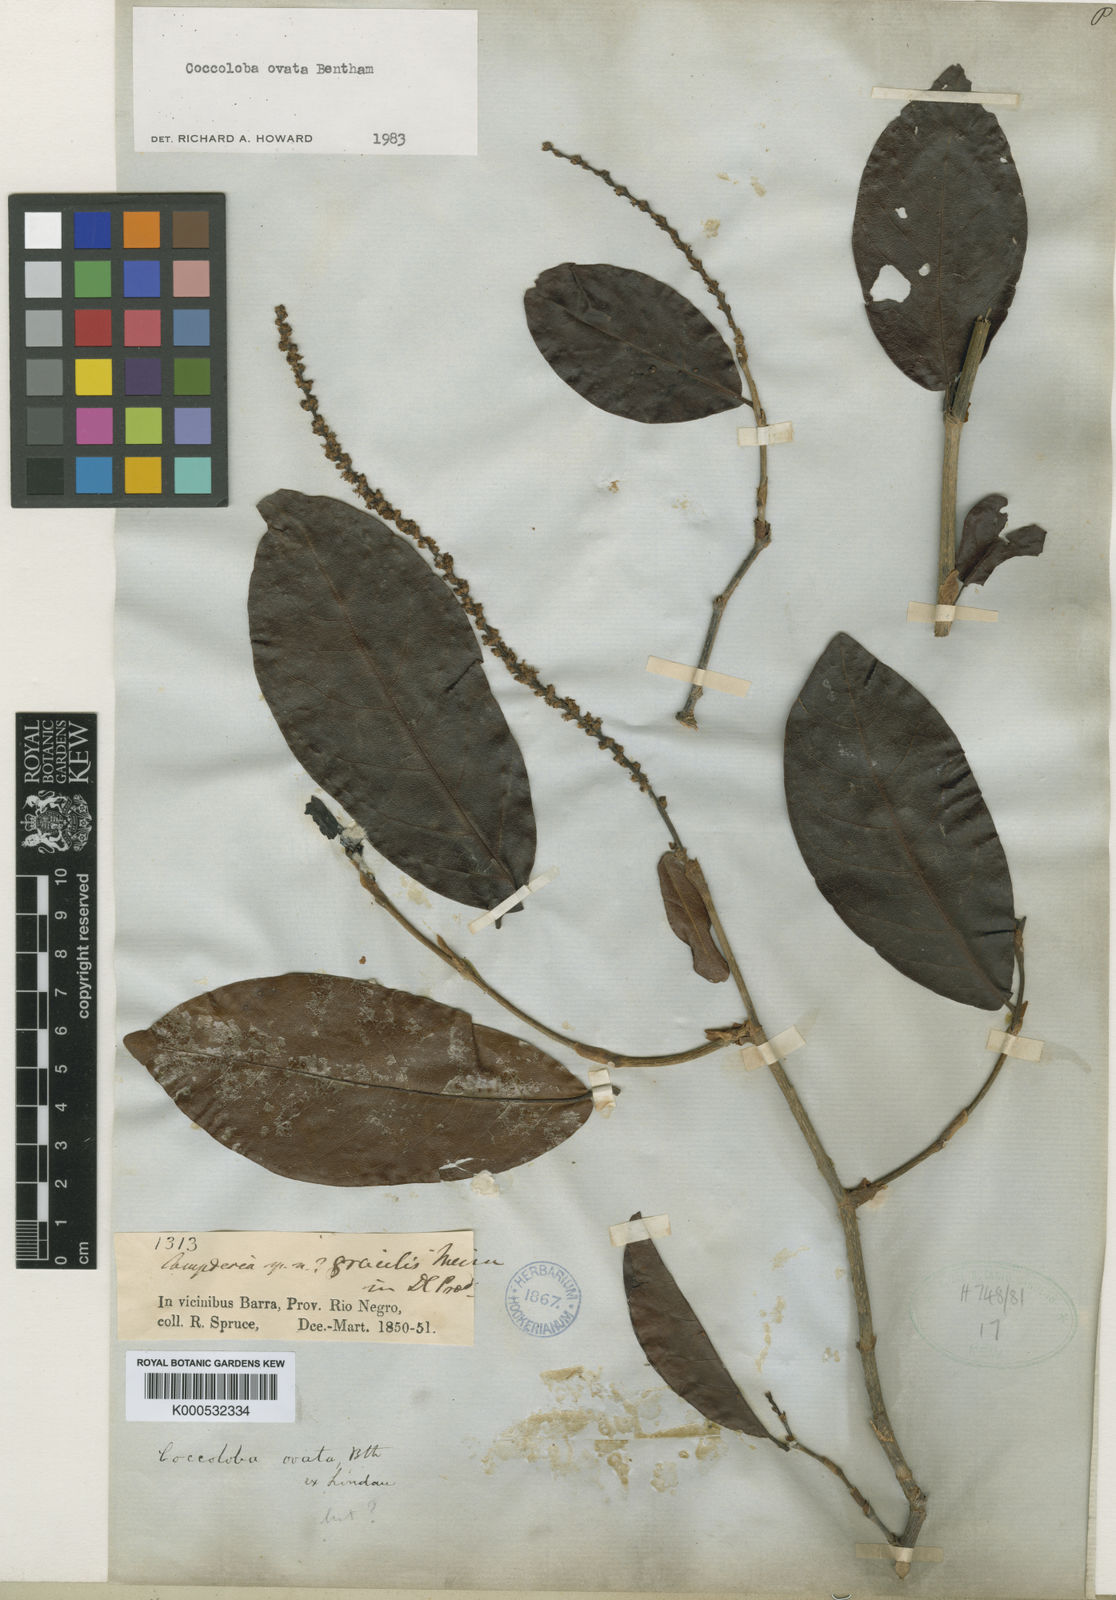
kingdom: Plantae
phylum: Tracheophyta
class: Magnoliopsida
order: Caryophyllales
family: Polygonaceae
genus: Coccoloba
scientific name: Coccoloba ovata
